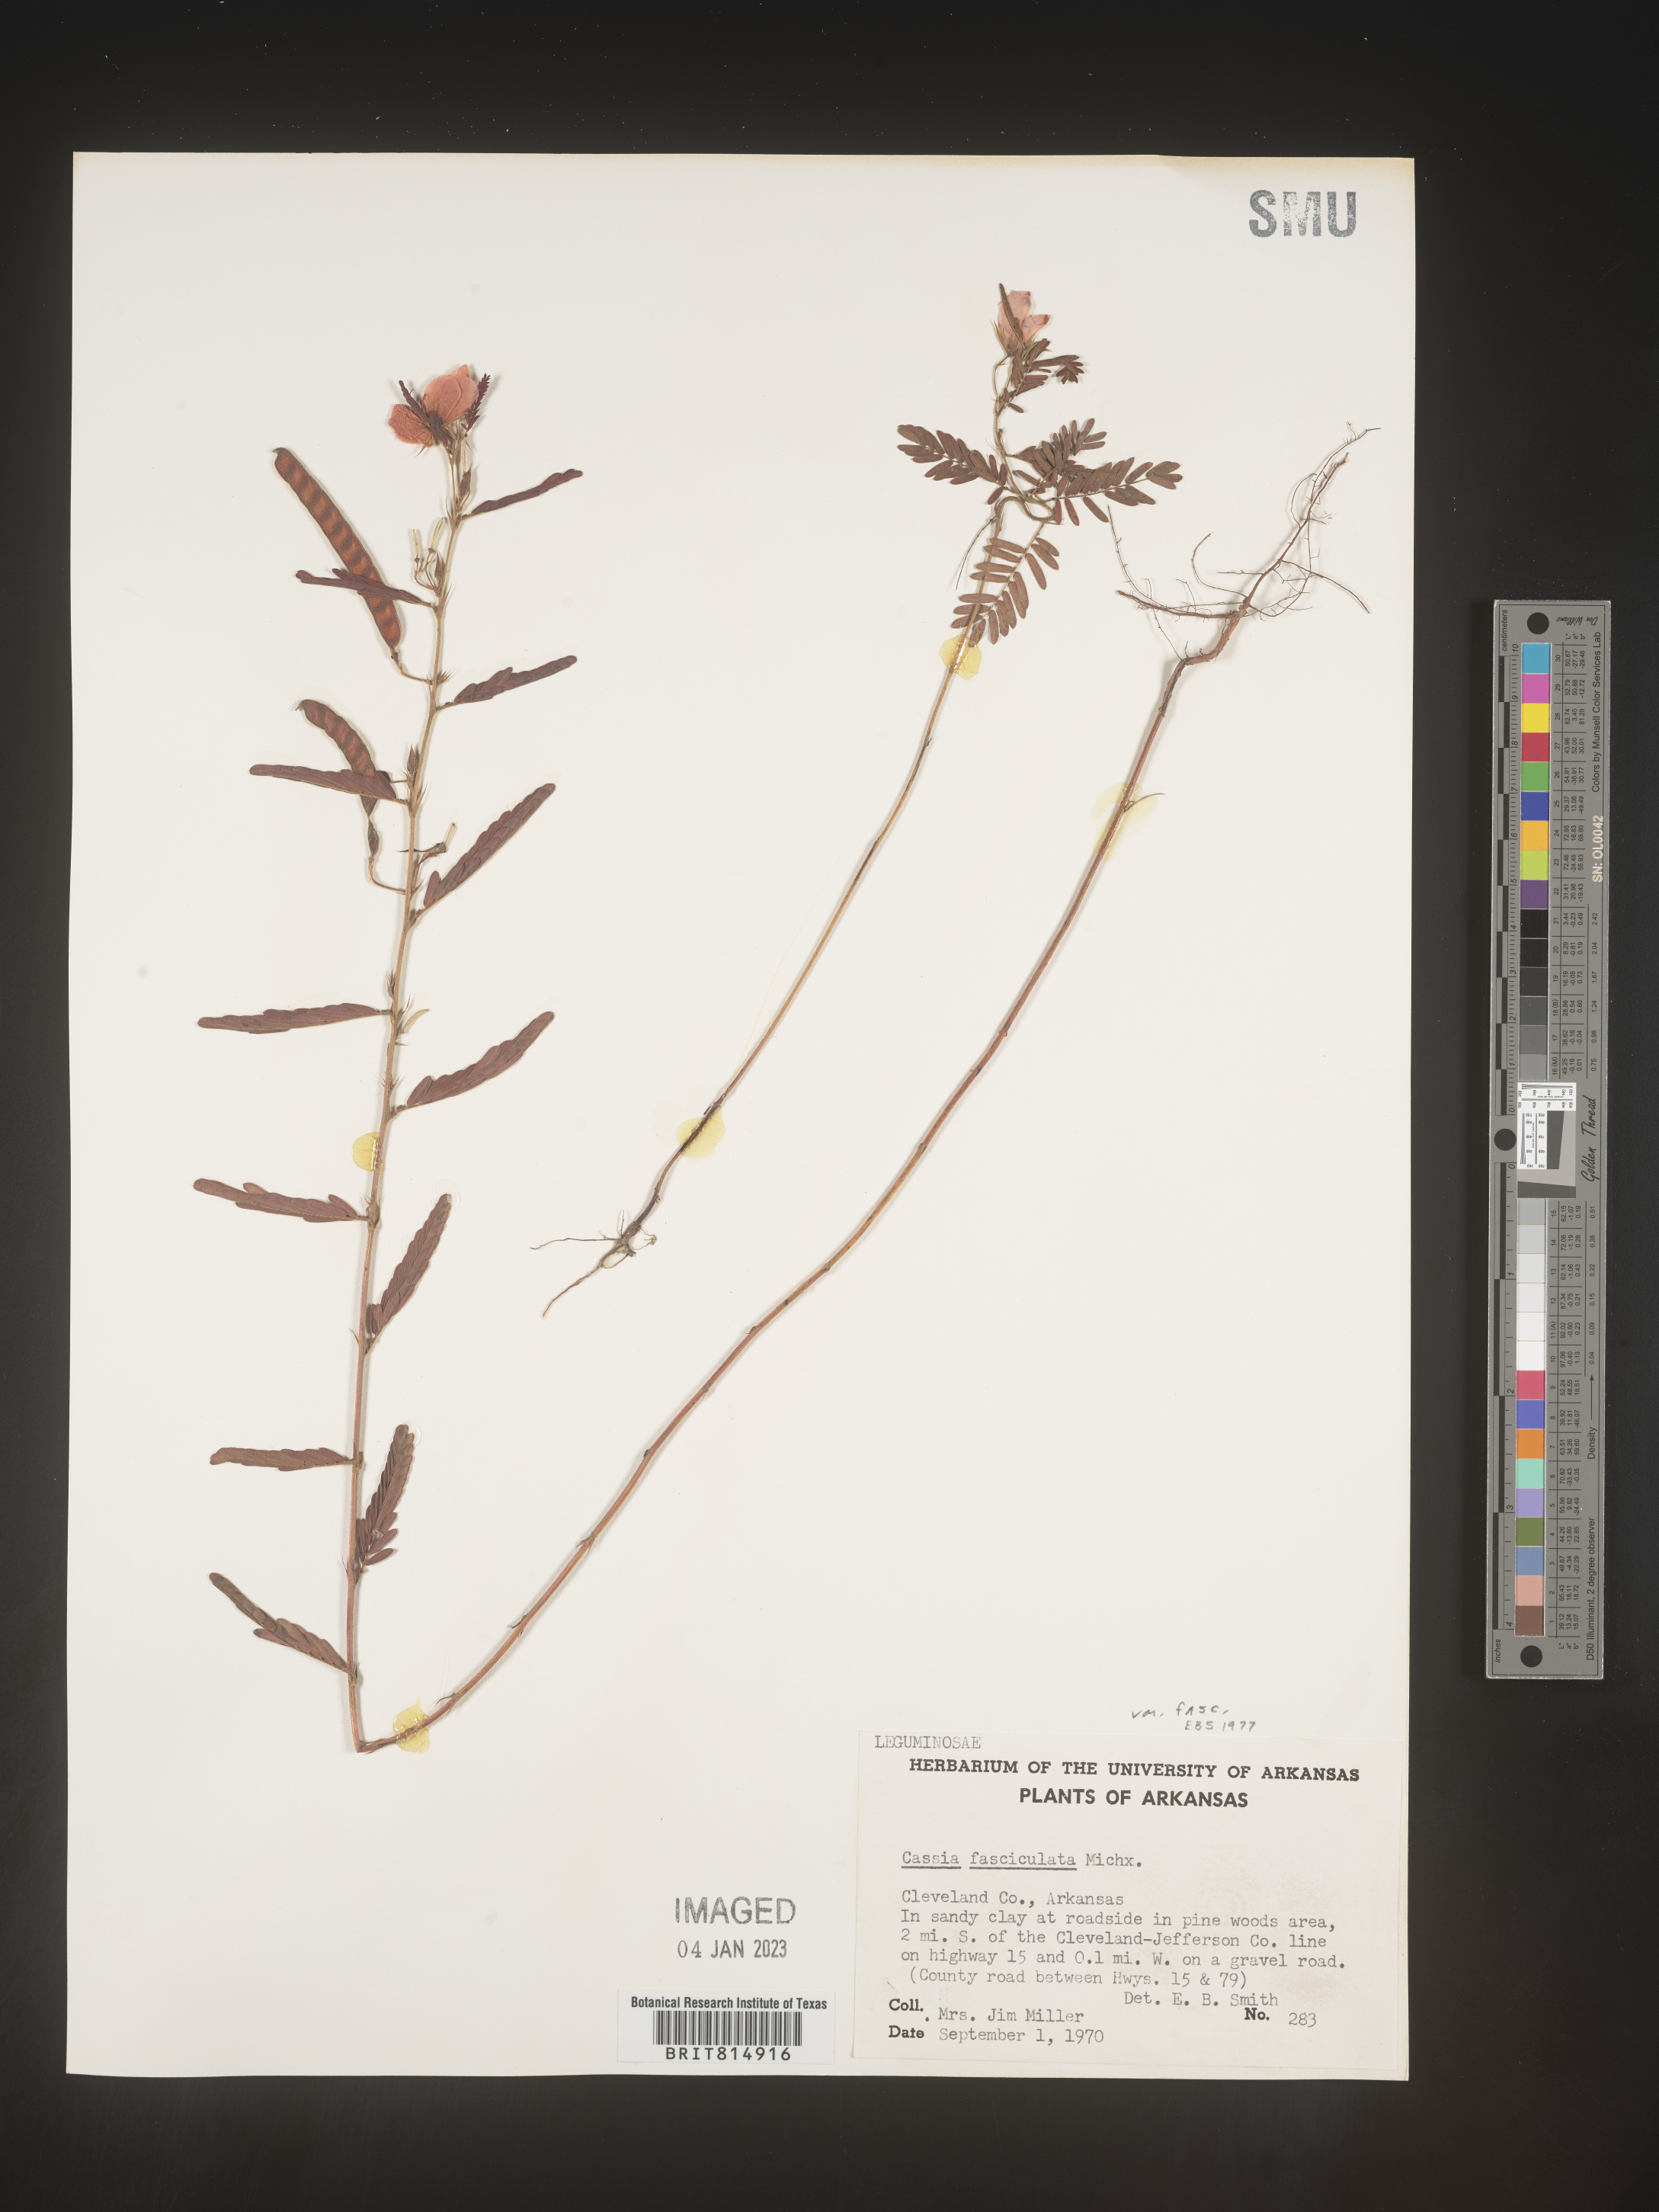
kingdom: Plantae
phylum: Tracheophyta
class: Magnoliopsida
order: Fabales
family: Fabaceae
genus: Chamaecrista
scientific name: Chamaecrista fasciculata
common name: Golden cassia
